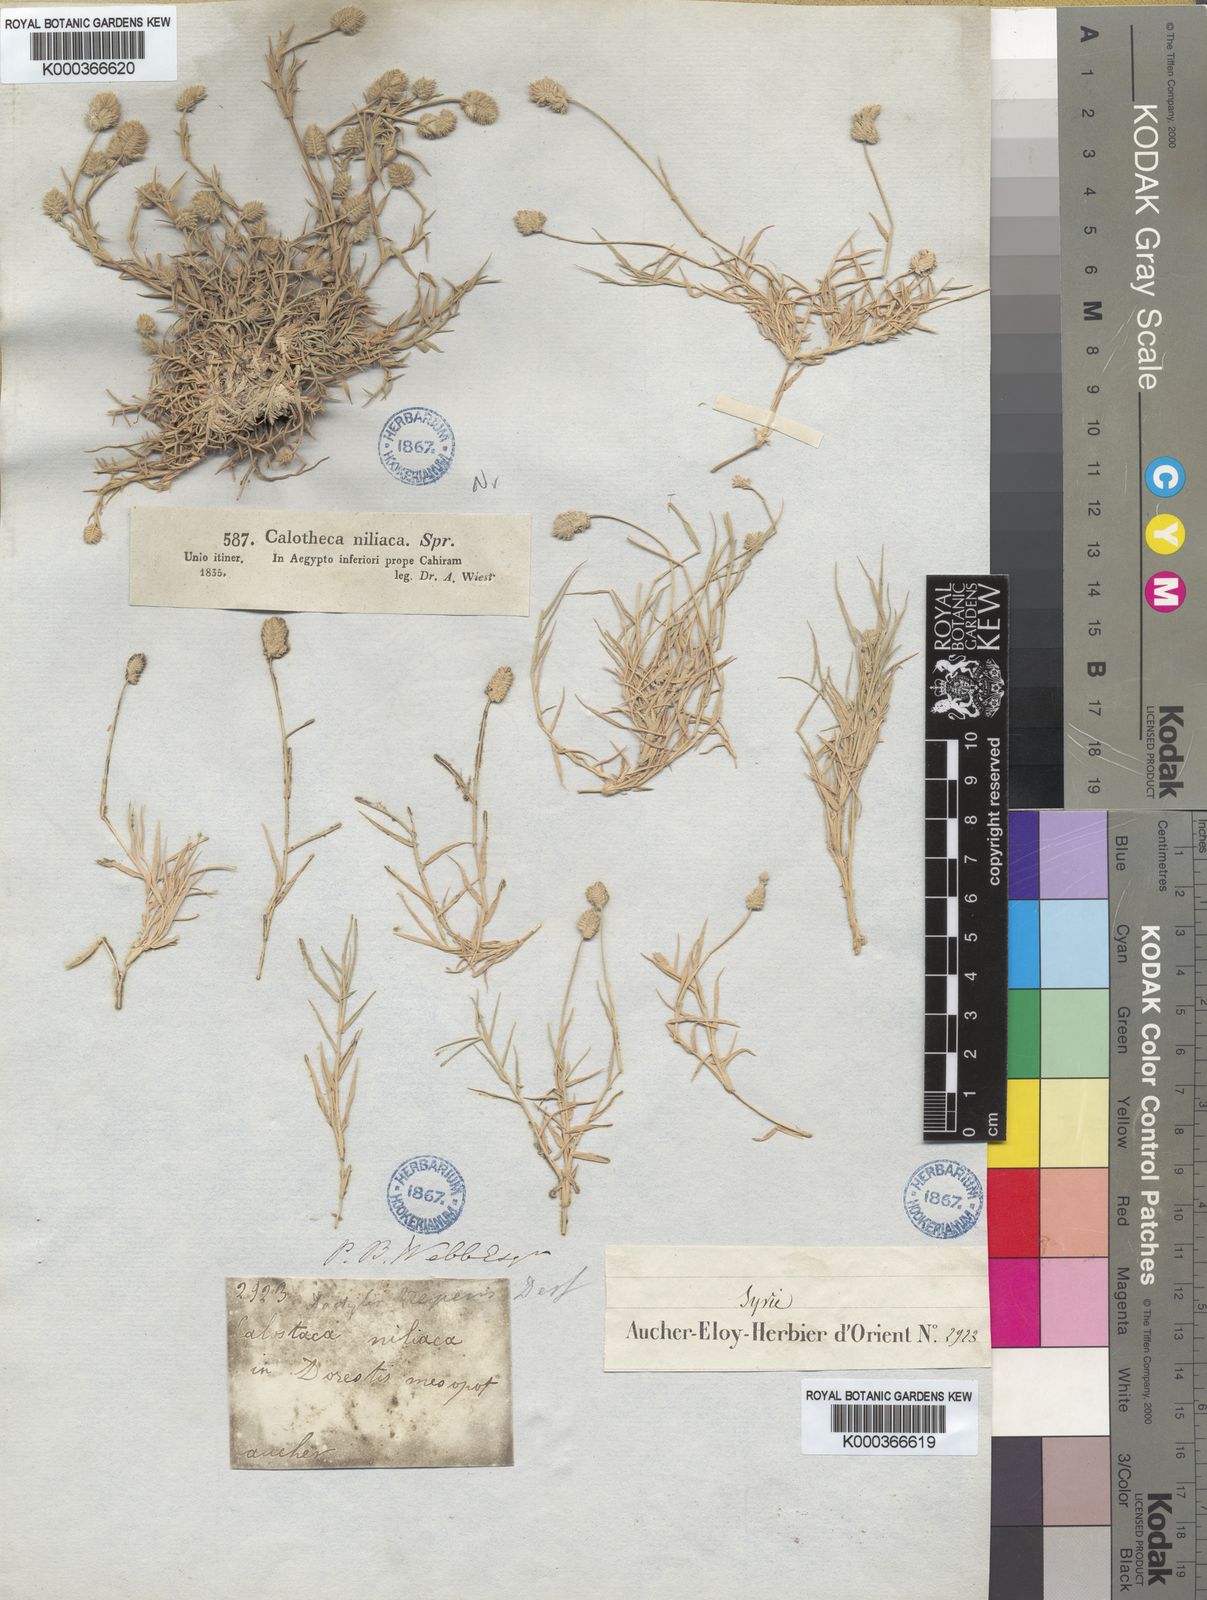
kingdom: Plantae
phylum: Tracheophyta
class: Liliopsida
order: Poales
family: Poaceae
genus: Aeluropus
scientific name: Aeluropus lagopoides
